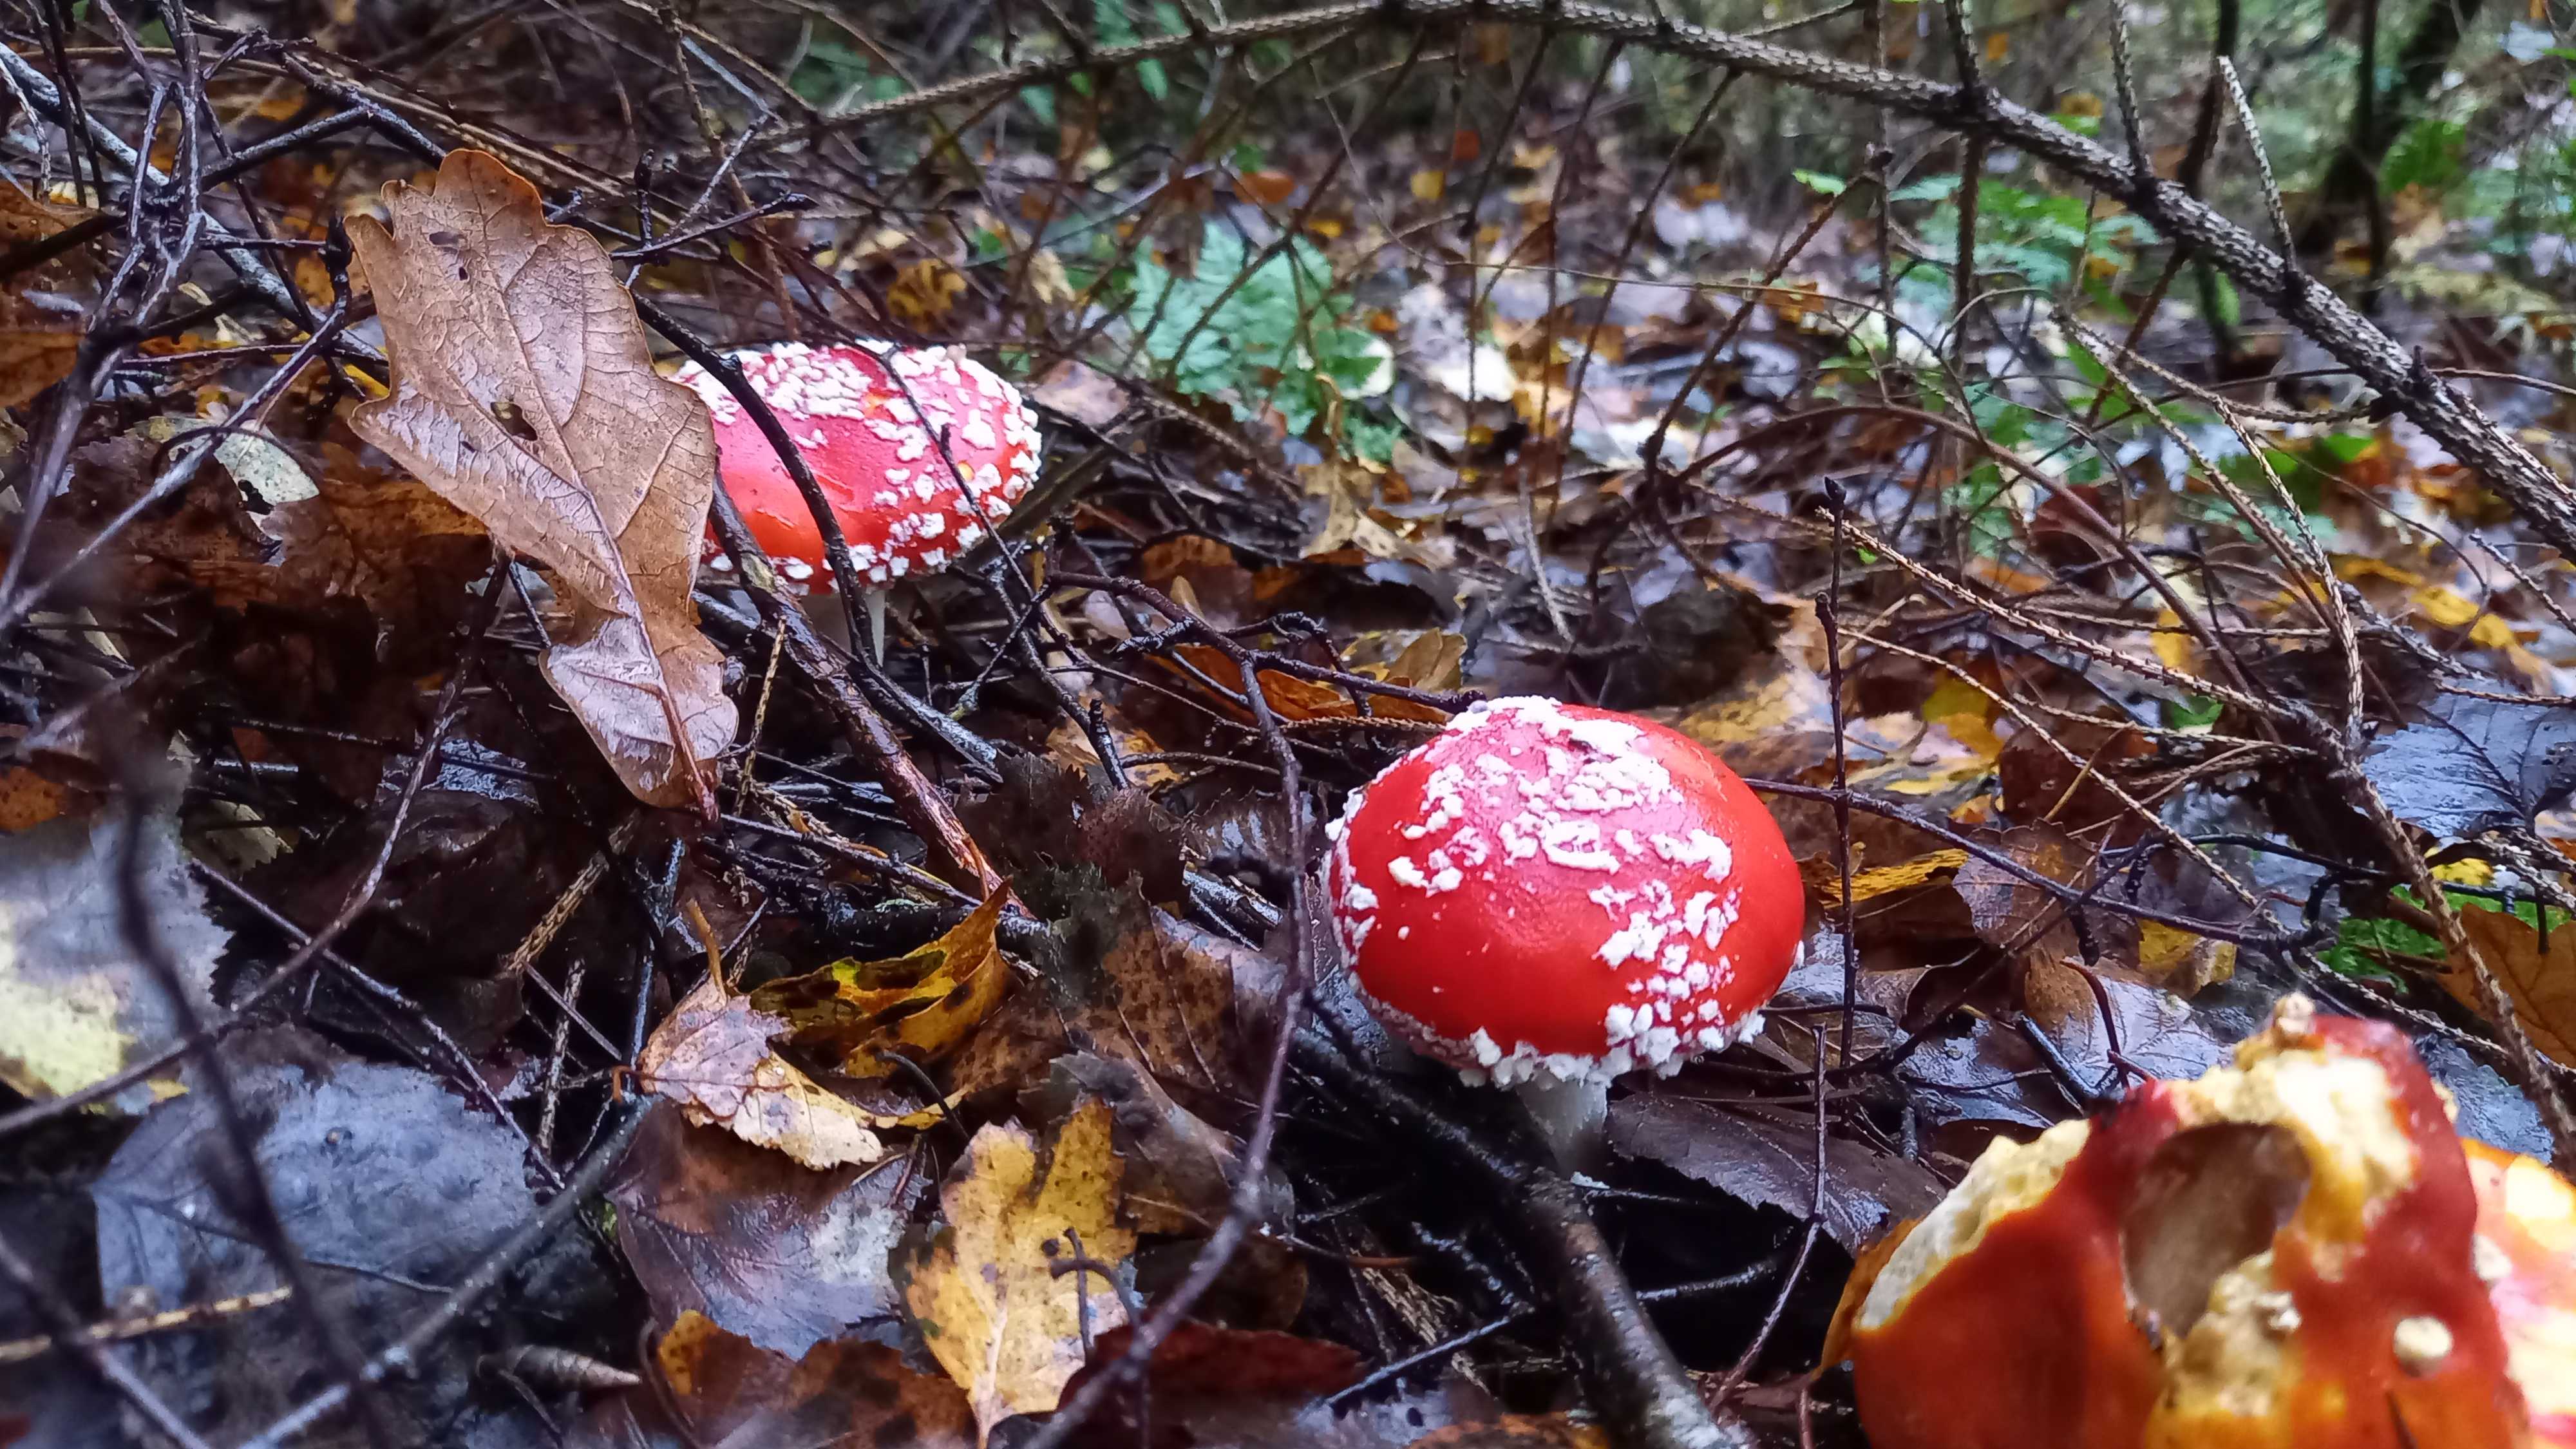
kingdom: Fungi
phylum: Basidiomycota
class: Agaricomycetes
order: Agaricales
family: Amanitaceae
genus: Amanita
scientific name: Amanita muscaria
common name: rød fluesvamp
